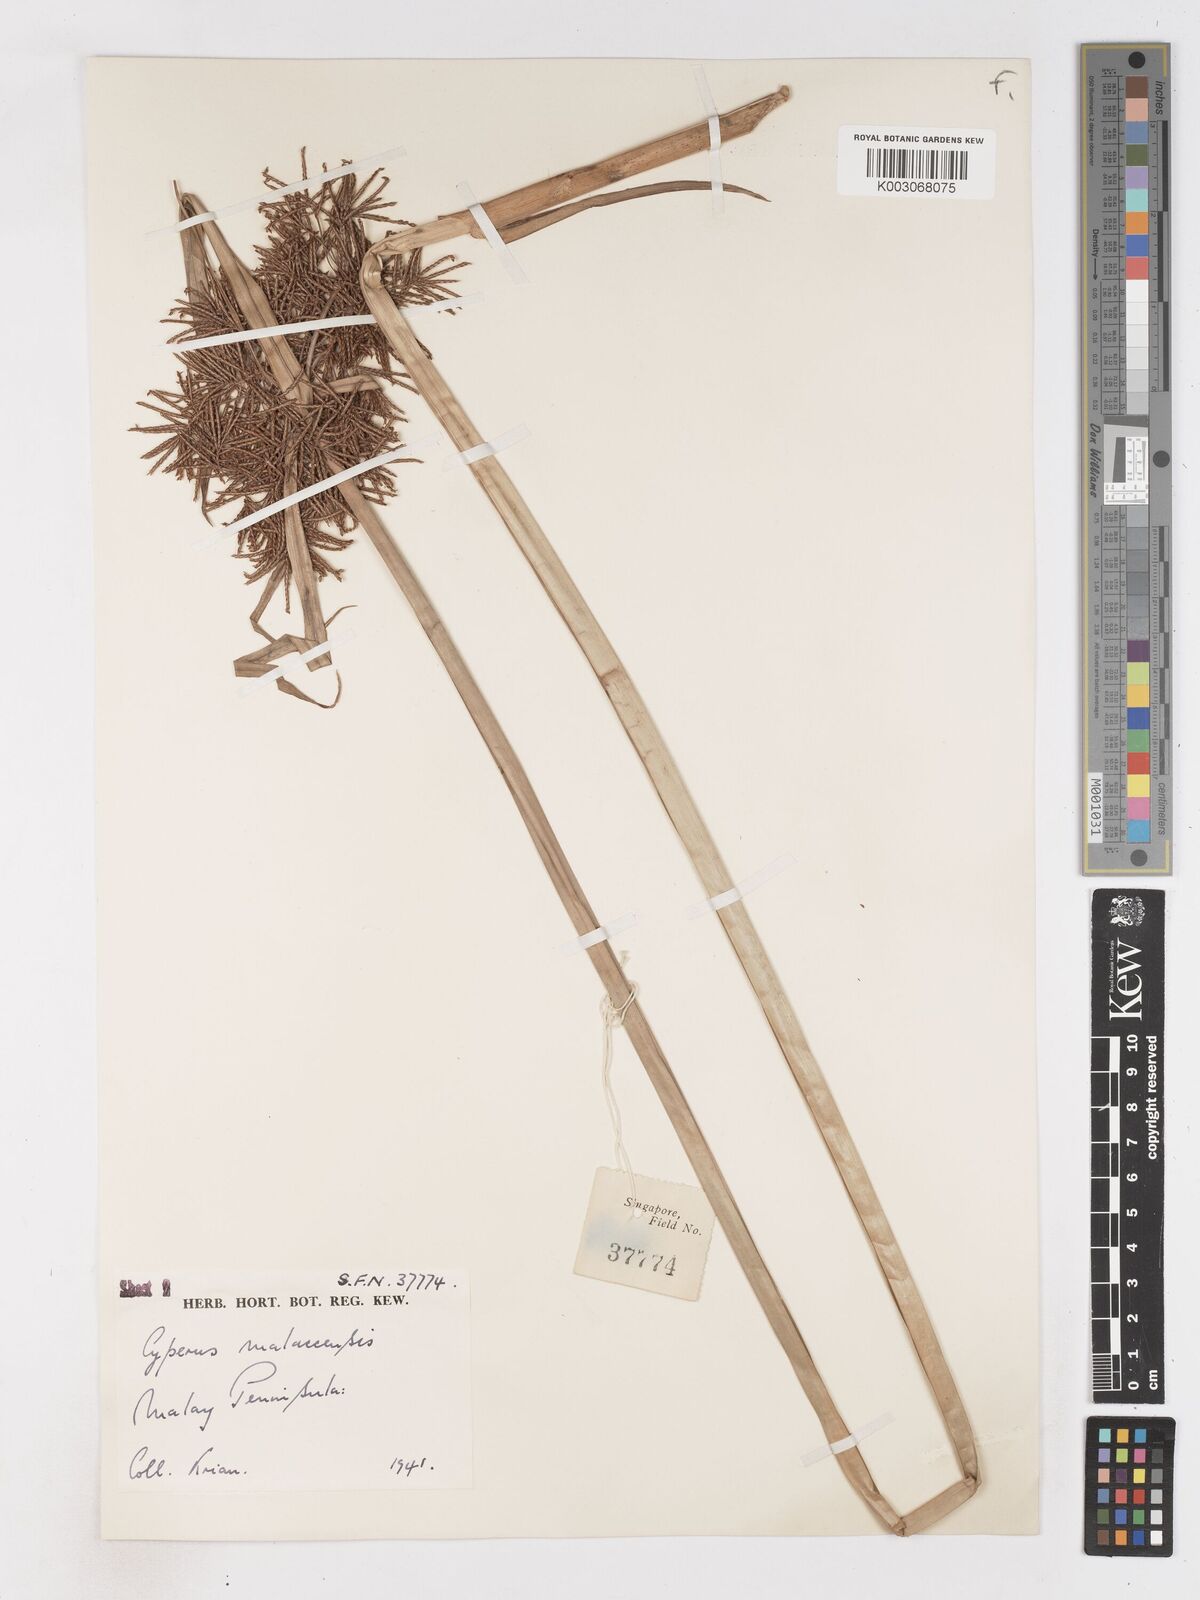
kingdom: Plantae
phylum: Tracheophyta
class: Liliopsida
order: Poales
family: Cyperaceae
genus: Cyperus
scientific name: Cyperus malaccensis
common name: Shichito matgrass
